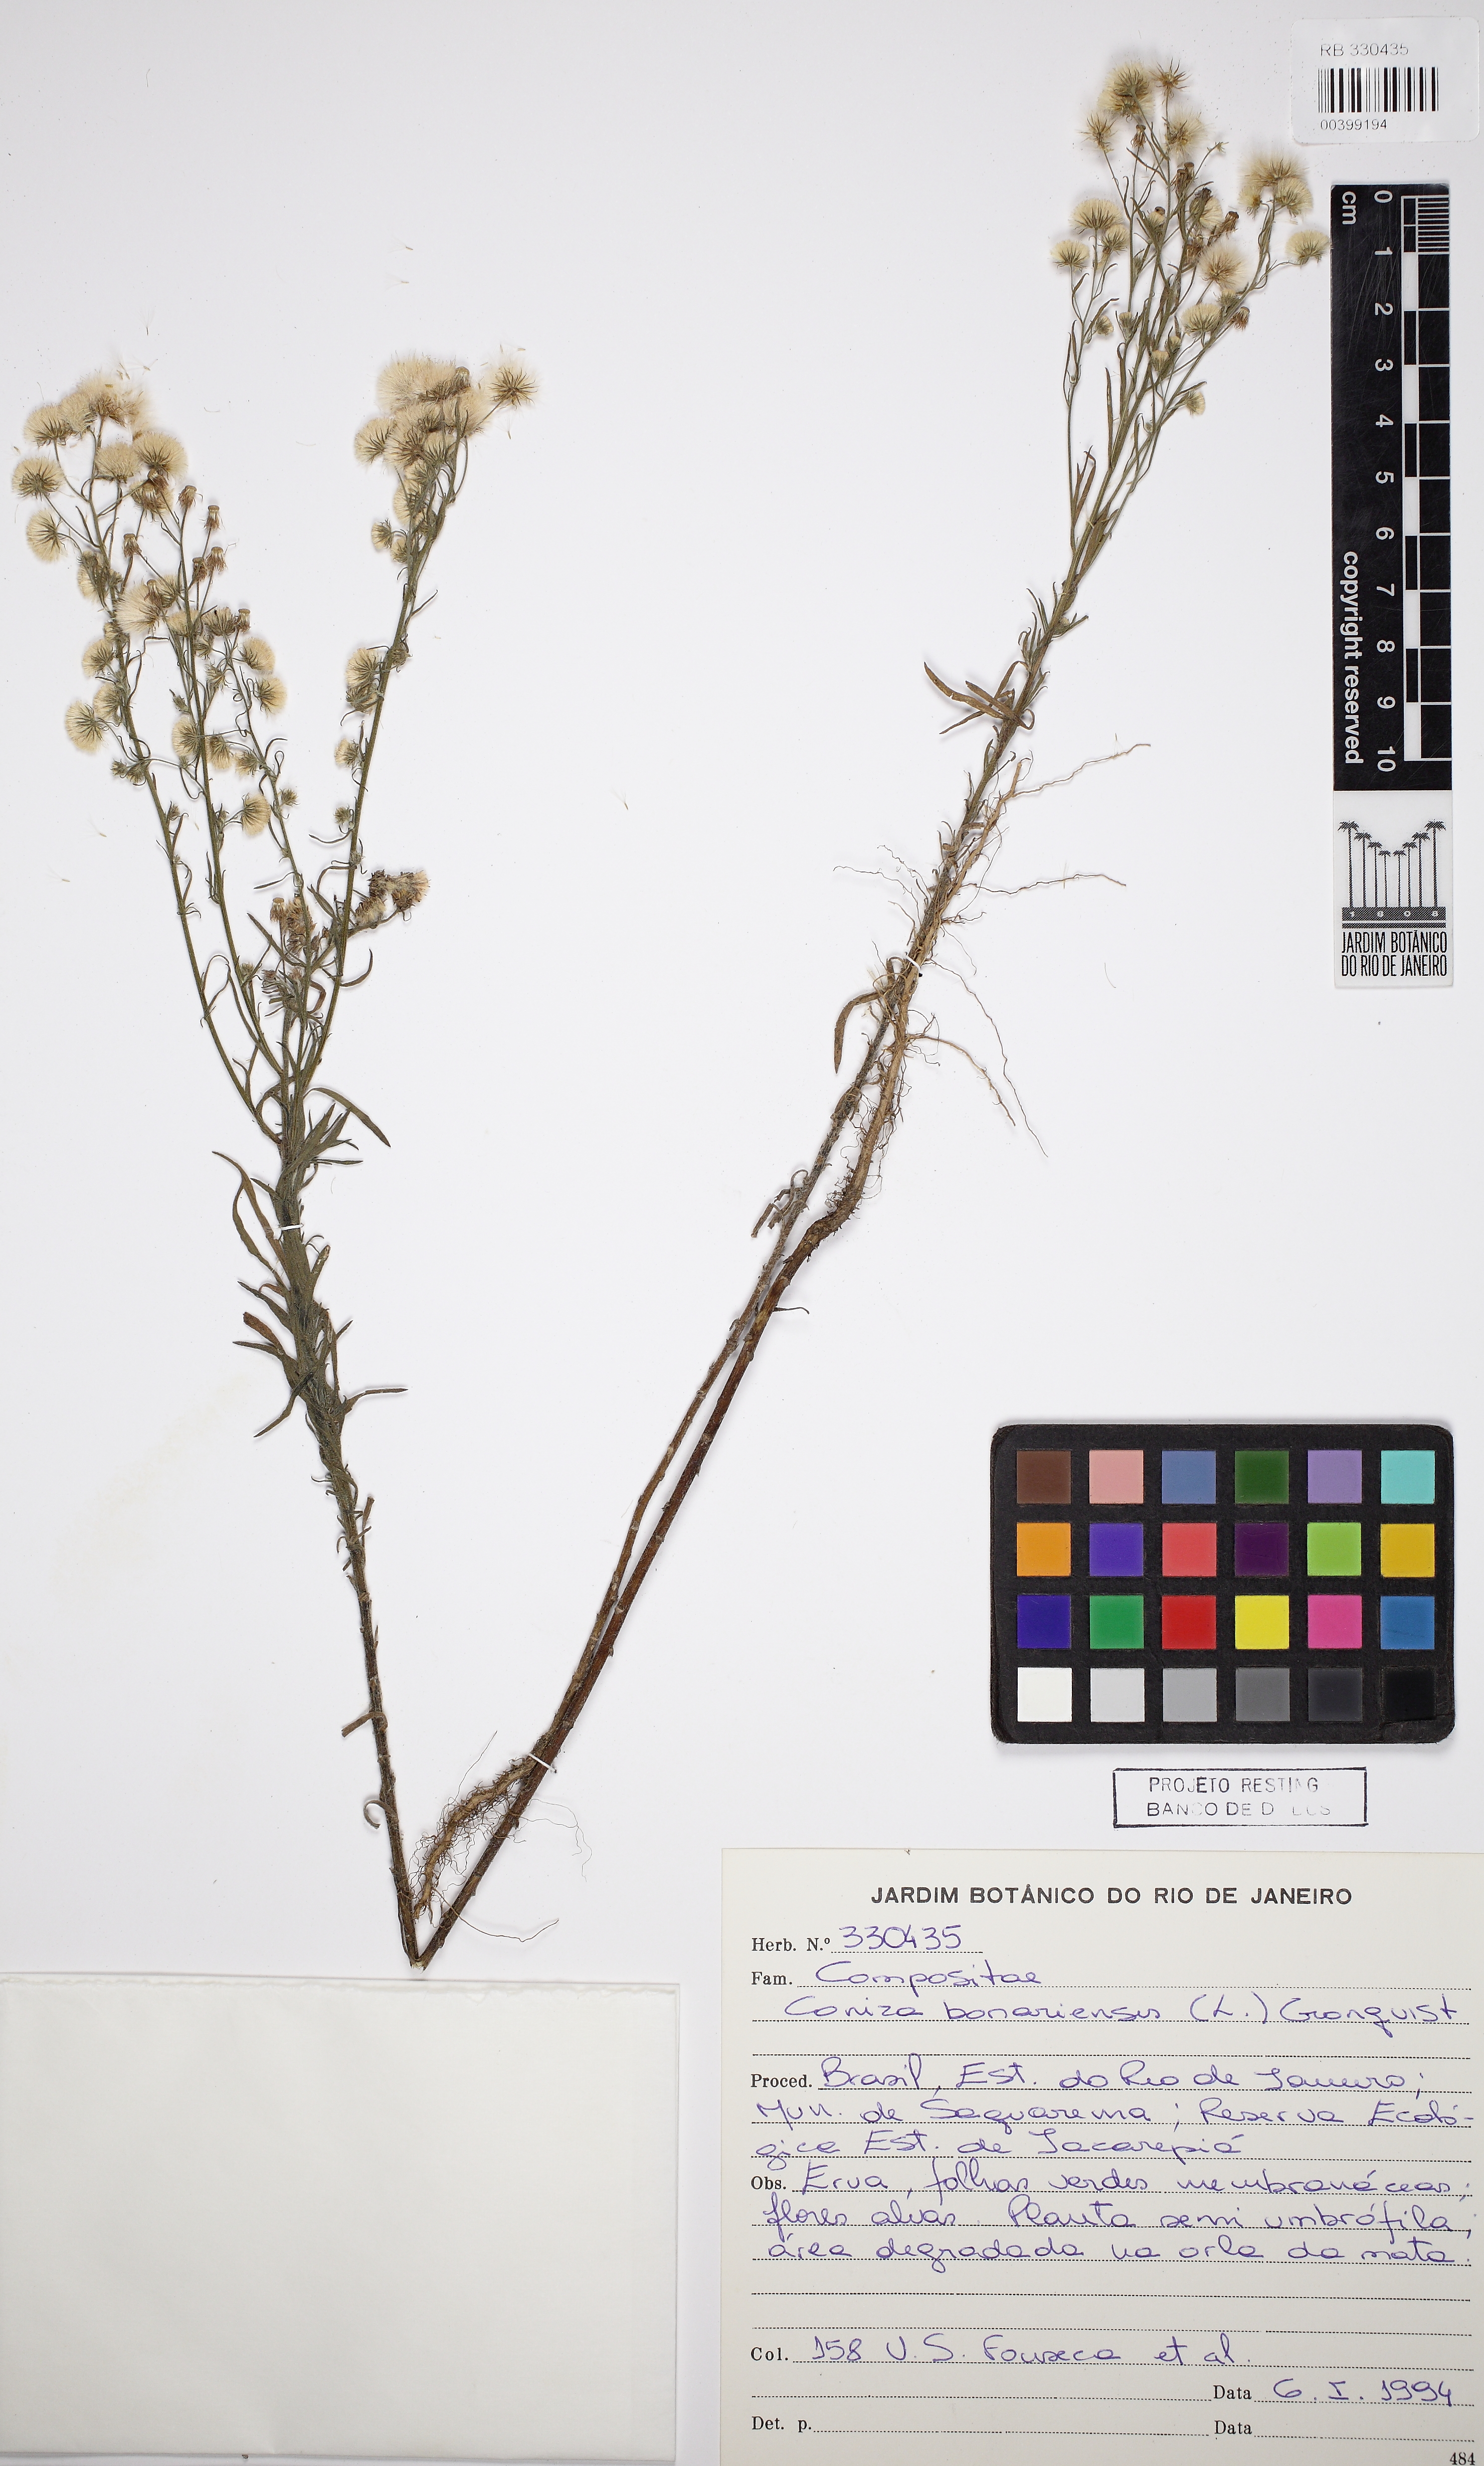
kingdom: Plantae
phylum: Tracheophyta
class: Magnoliopsida
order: Asterales
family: Asteraceae
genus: Erigeron
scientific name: Erigeron bonariensis
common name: Argentine fleabane
